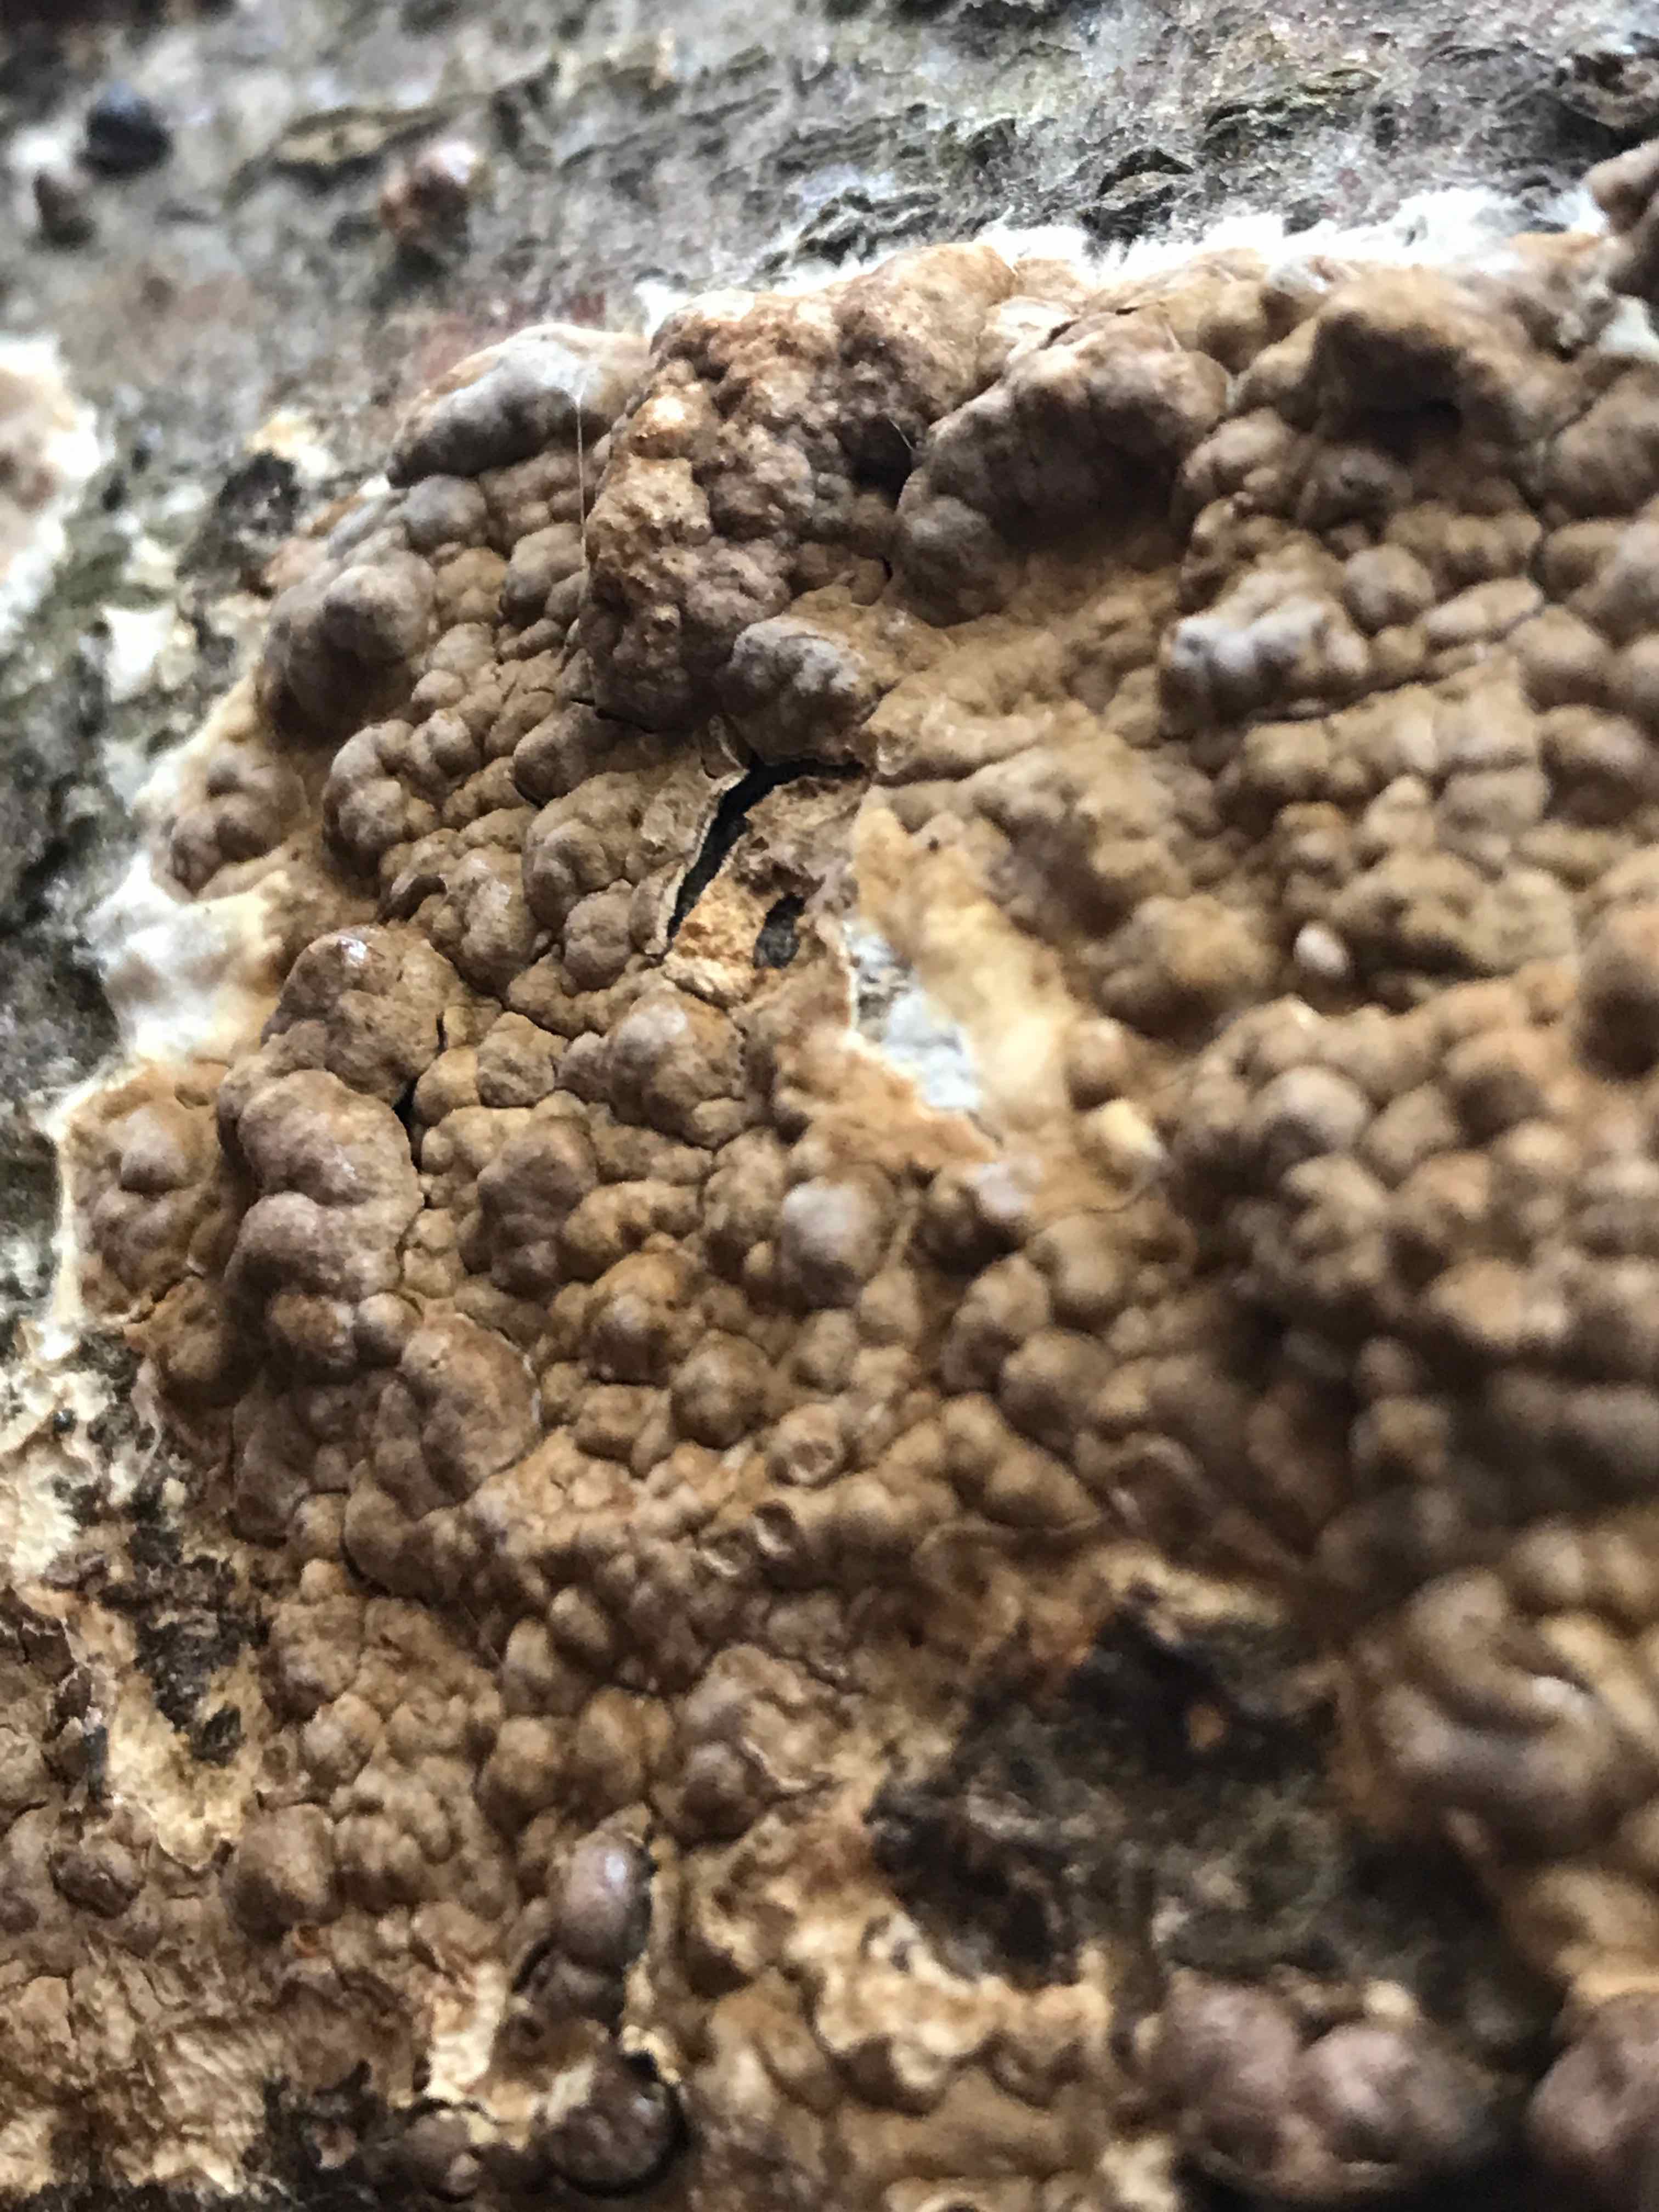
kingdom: Fungi
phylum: Basidiomycota
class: Agaricomycetes
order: Boletales
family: Coniophoraceae
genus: Coniophora
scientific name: Coniophora puteana
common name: gul tømmersvamp
